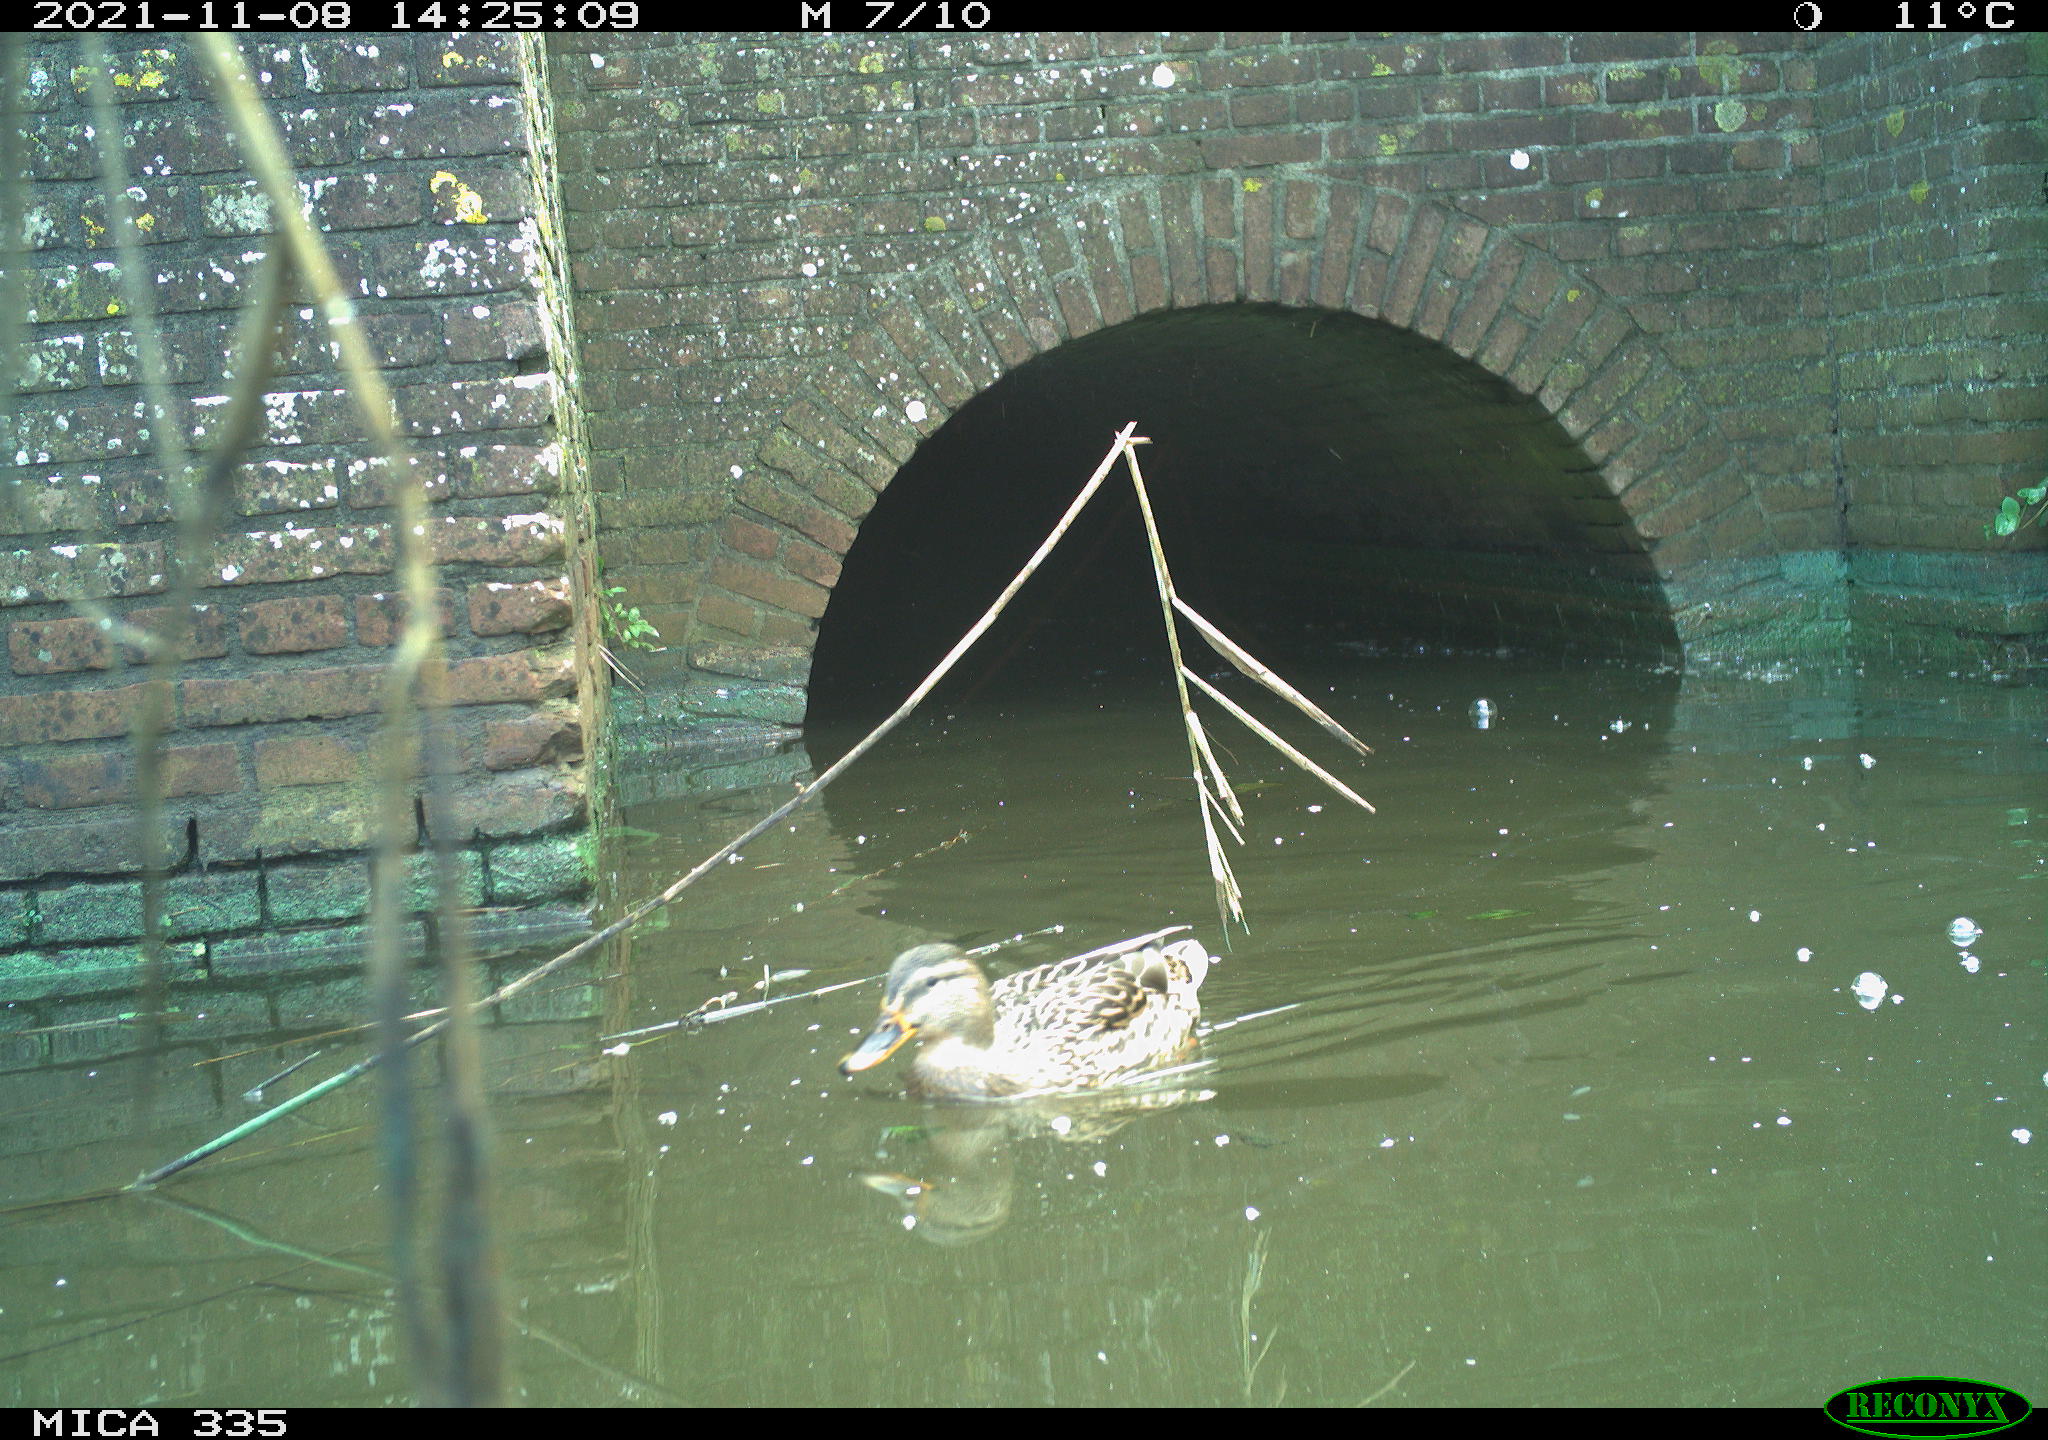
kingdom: Animalia
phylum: Chordata
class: Aves
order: Anseriformes
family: Anatidae
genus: Anas
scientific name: Anas platyrhynchos
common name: Mallard
